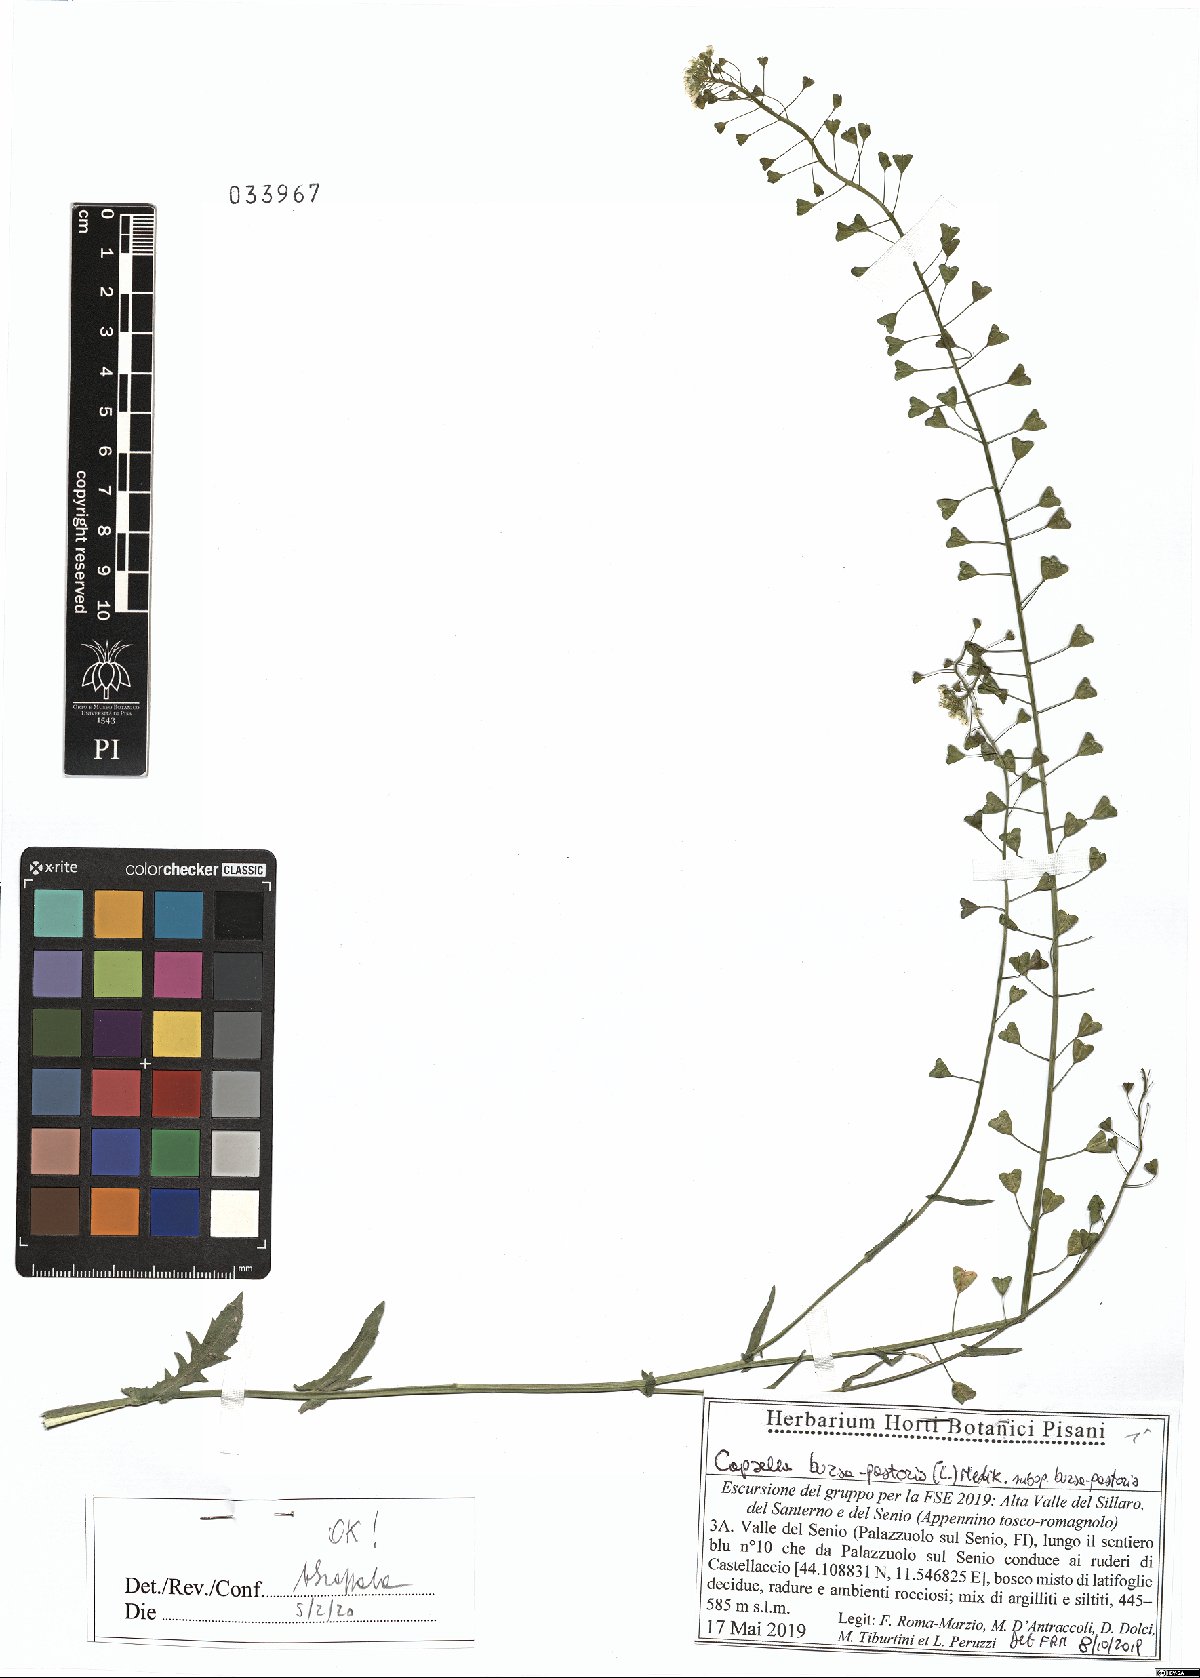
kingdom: Plantae
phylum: Tracheophyta
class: Magnoliopsida
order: Brassicales
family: Brassicaceae
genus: Capsella
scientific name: Capsella bursa-pastoris
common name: Shepherd's purse
